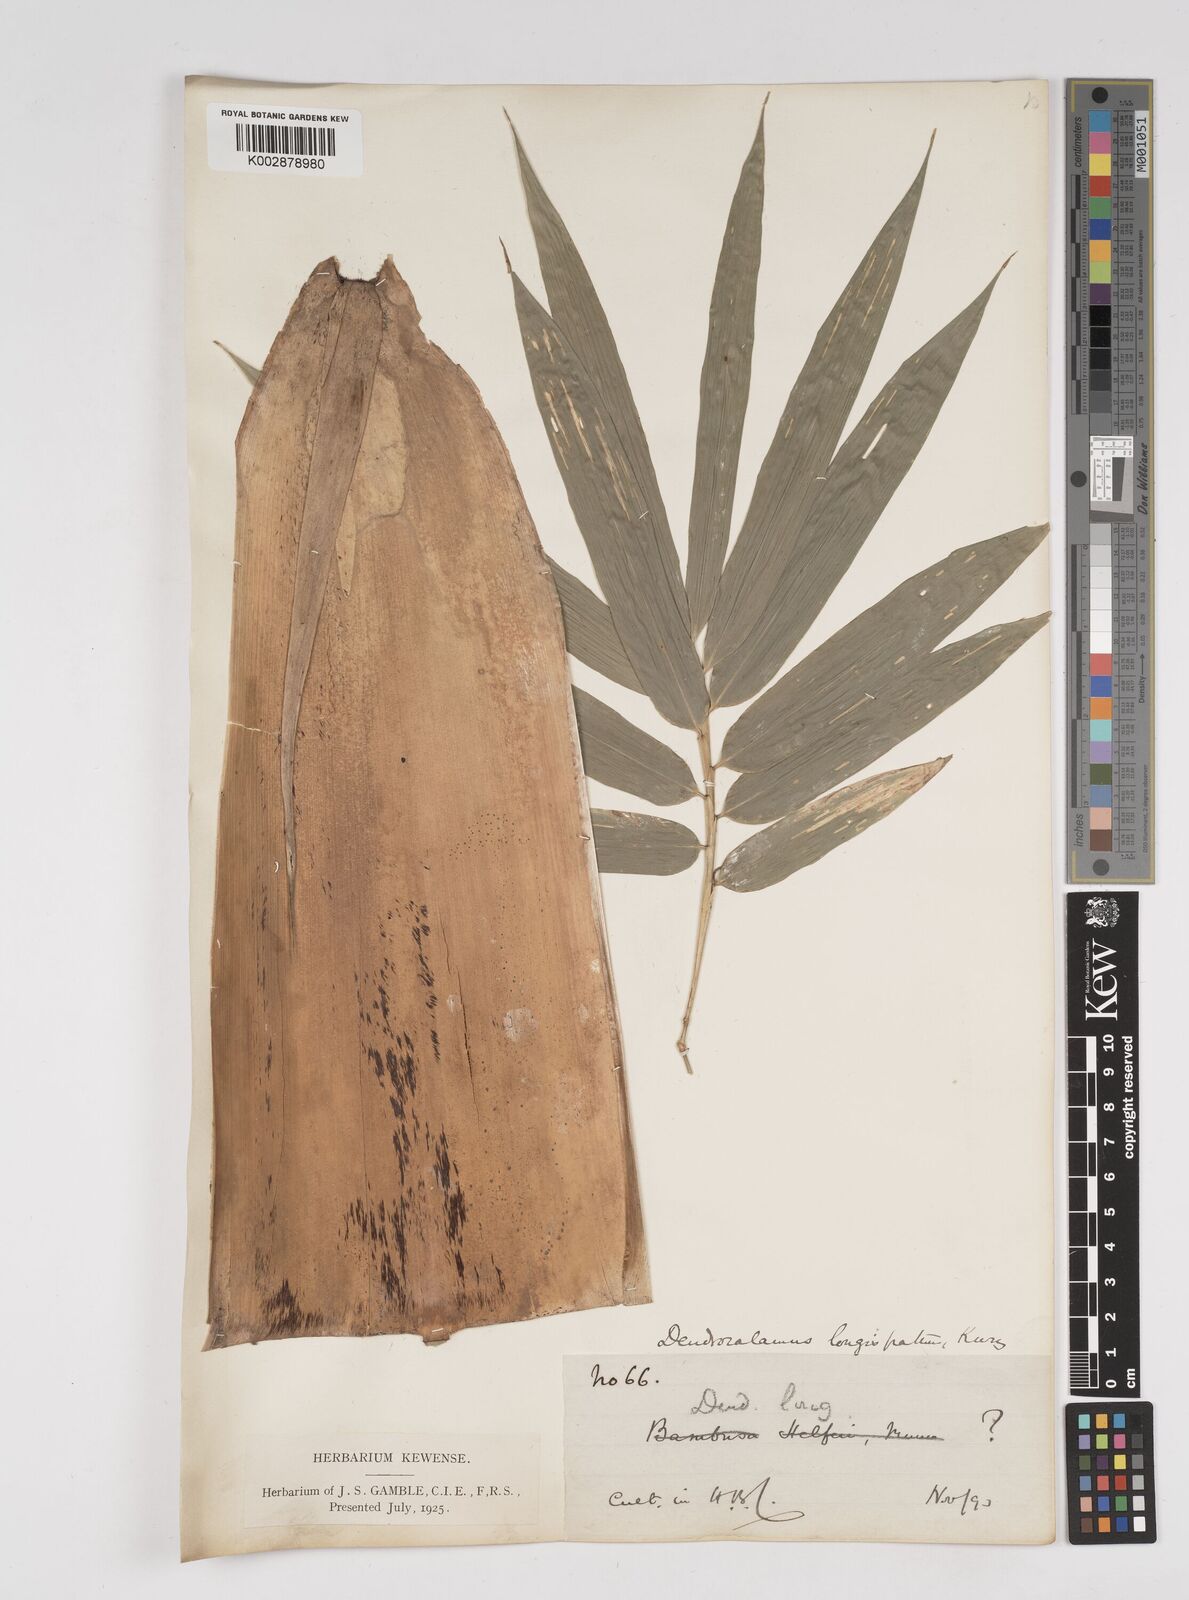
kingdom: Plantae
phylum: Tracheophyta
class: Liliopsida
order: Poales
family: Poaceae
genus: Dendrocalamus
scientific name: Dendrocalamus longispathus
